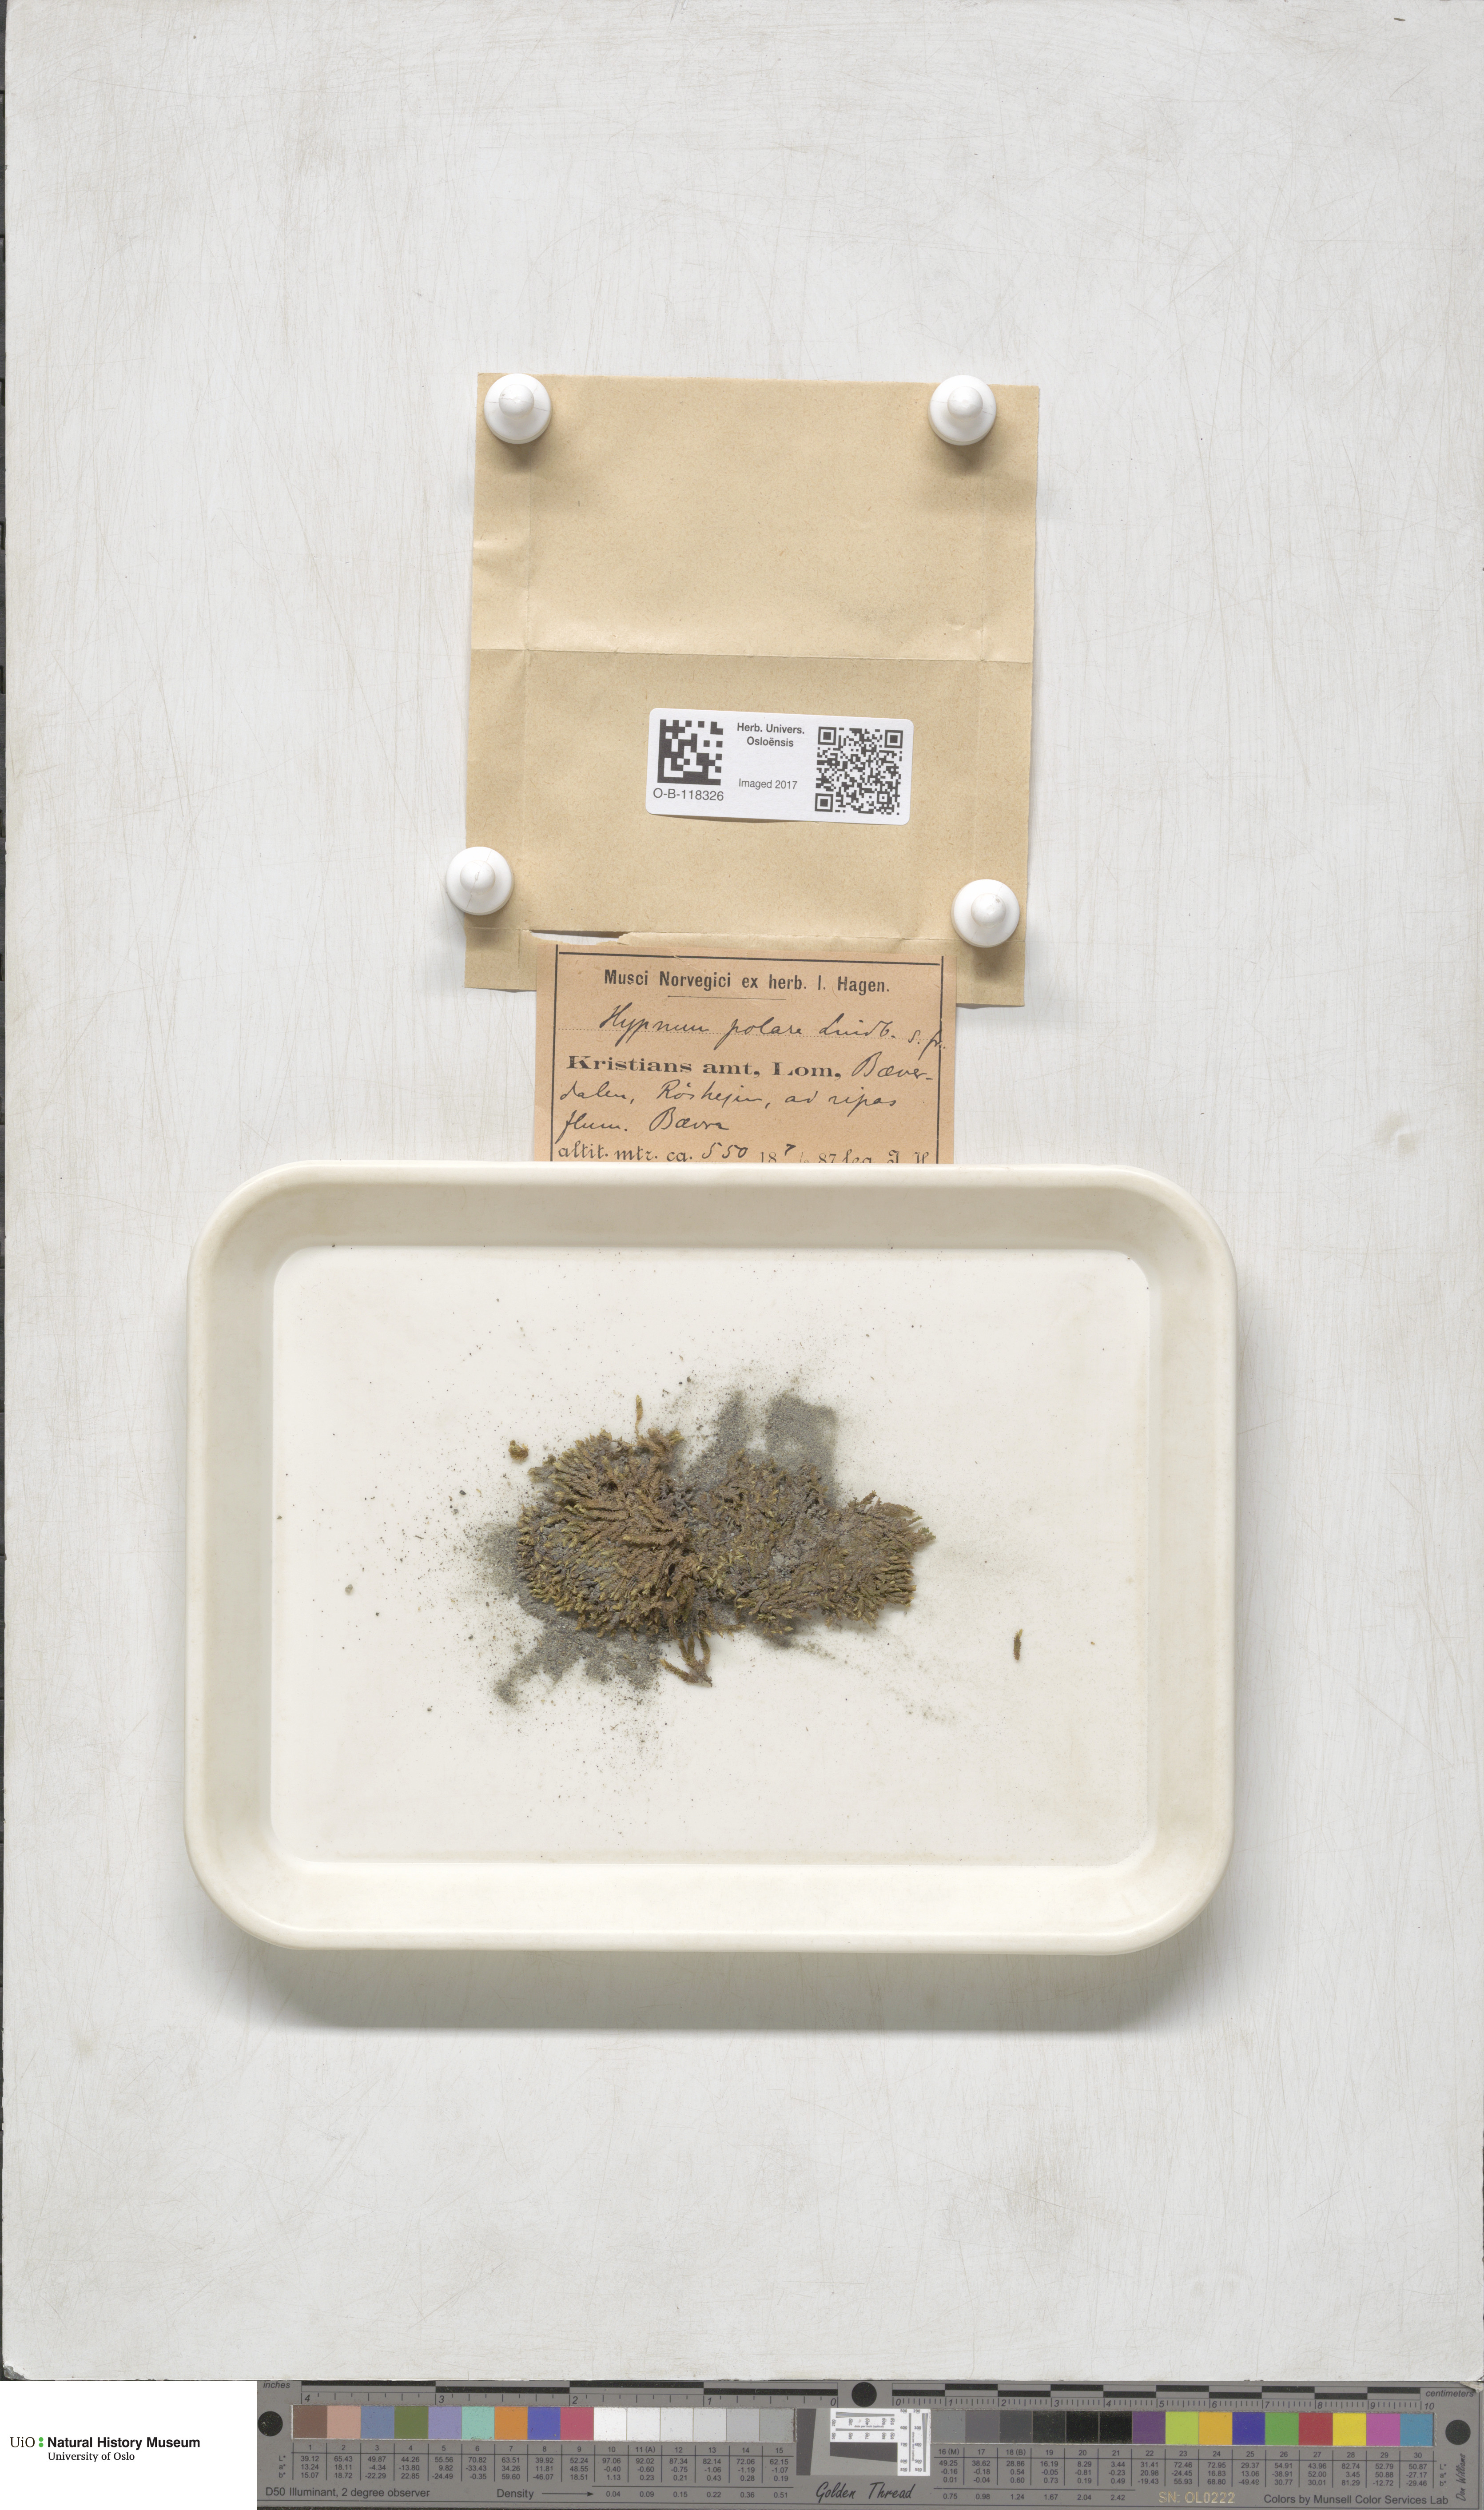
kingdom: Plantae
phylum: Bryophyta
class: Bryopsida
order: Hypnales
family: Scorpidiaceae
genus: Hygrohypnella
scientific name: Hygrohypnella polaris
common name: Polar brook-moss
